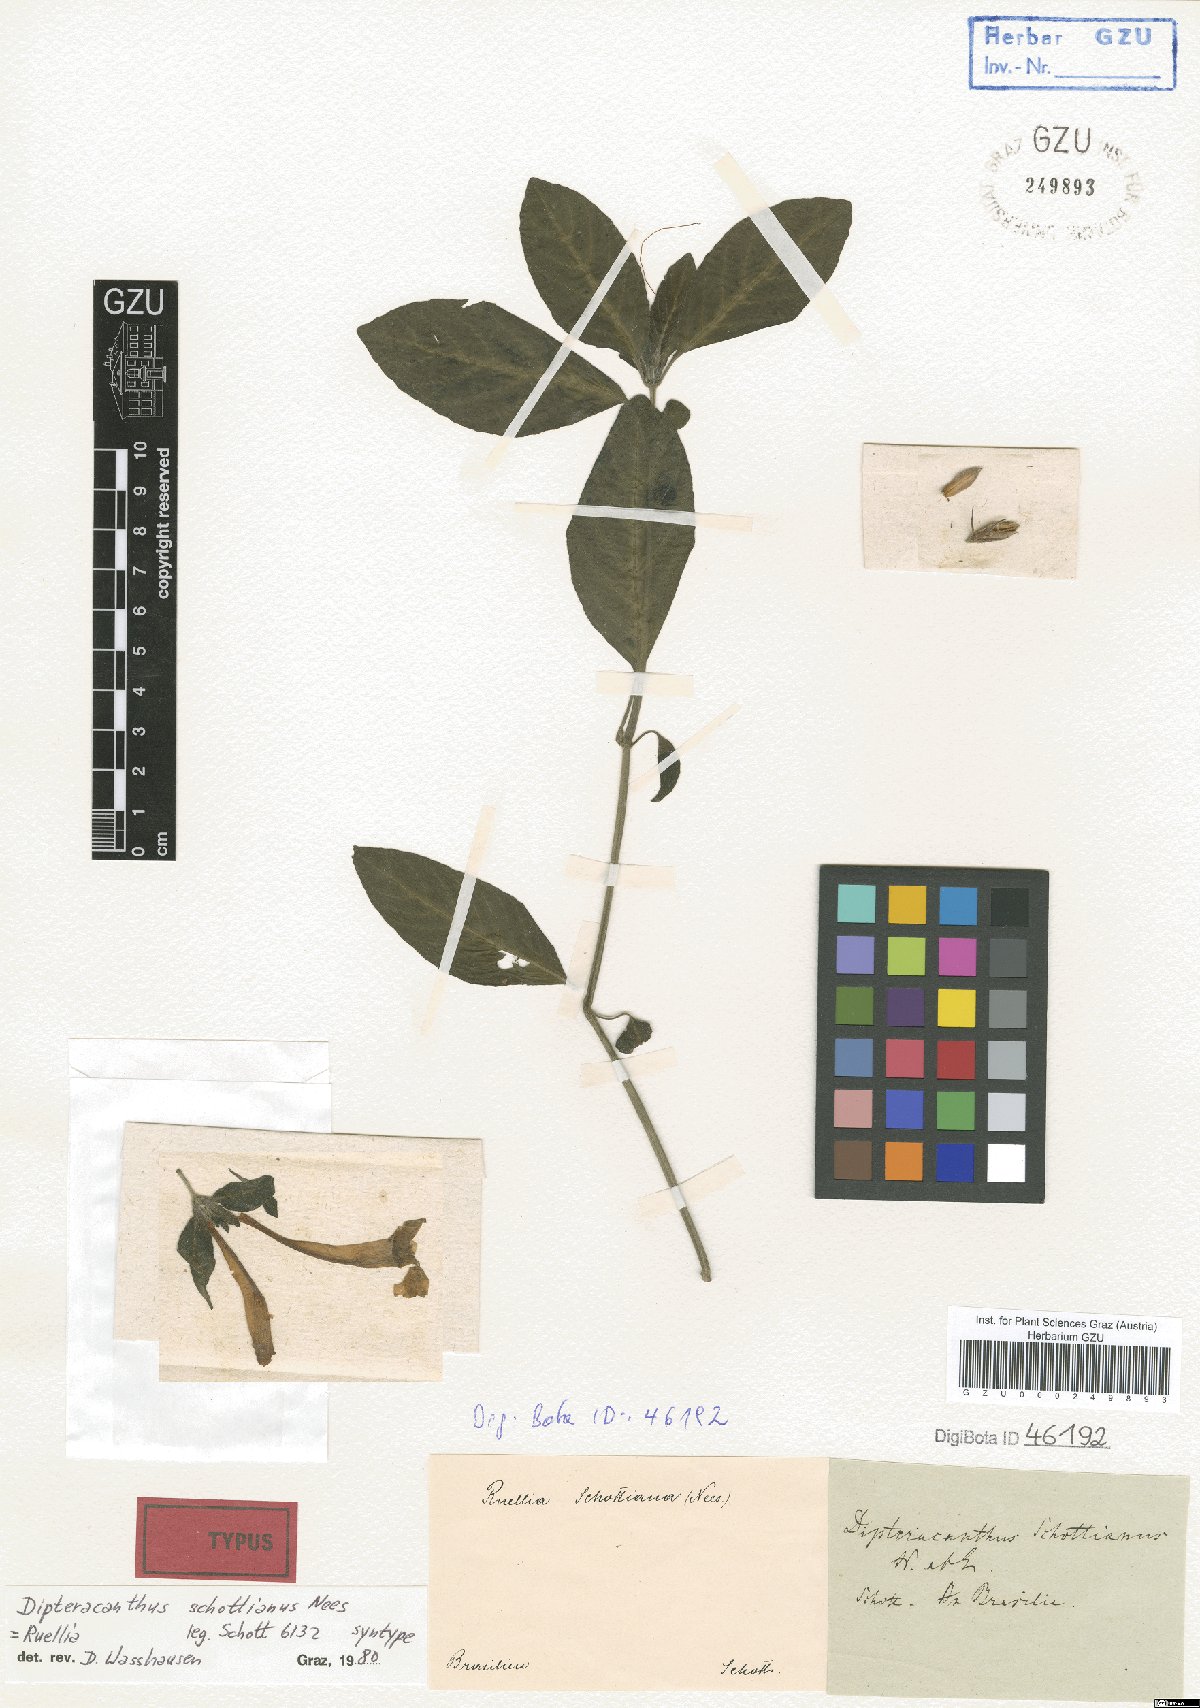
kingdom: Plantae
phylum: Tracheophyta
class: Magnoliopsida
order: Lamiales
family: Acanthaceae
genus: Ruellia
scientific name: Ruellia Dipteracanthus schottianus
